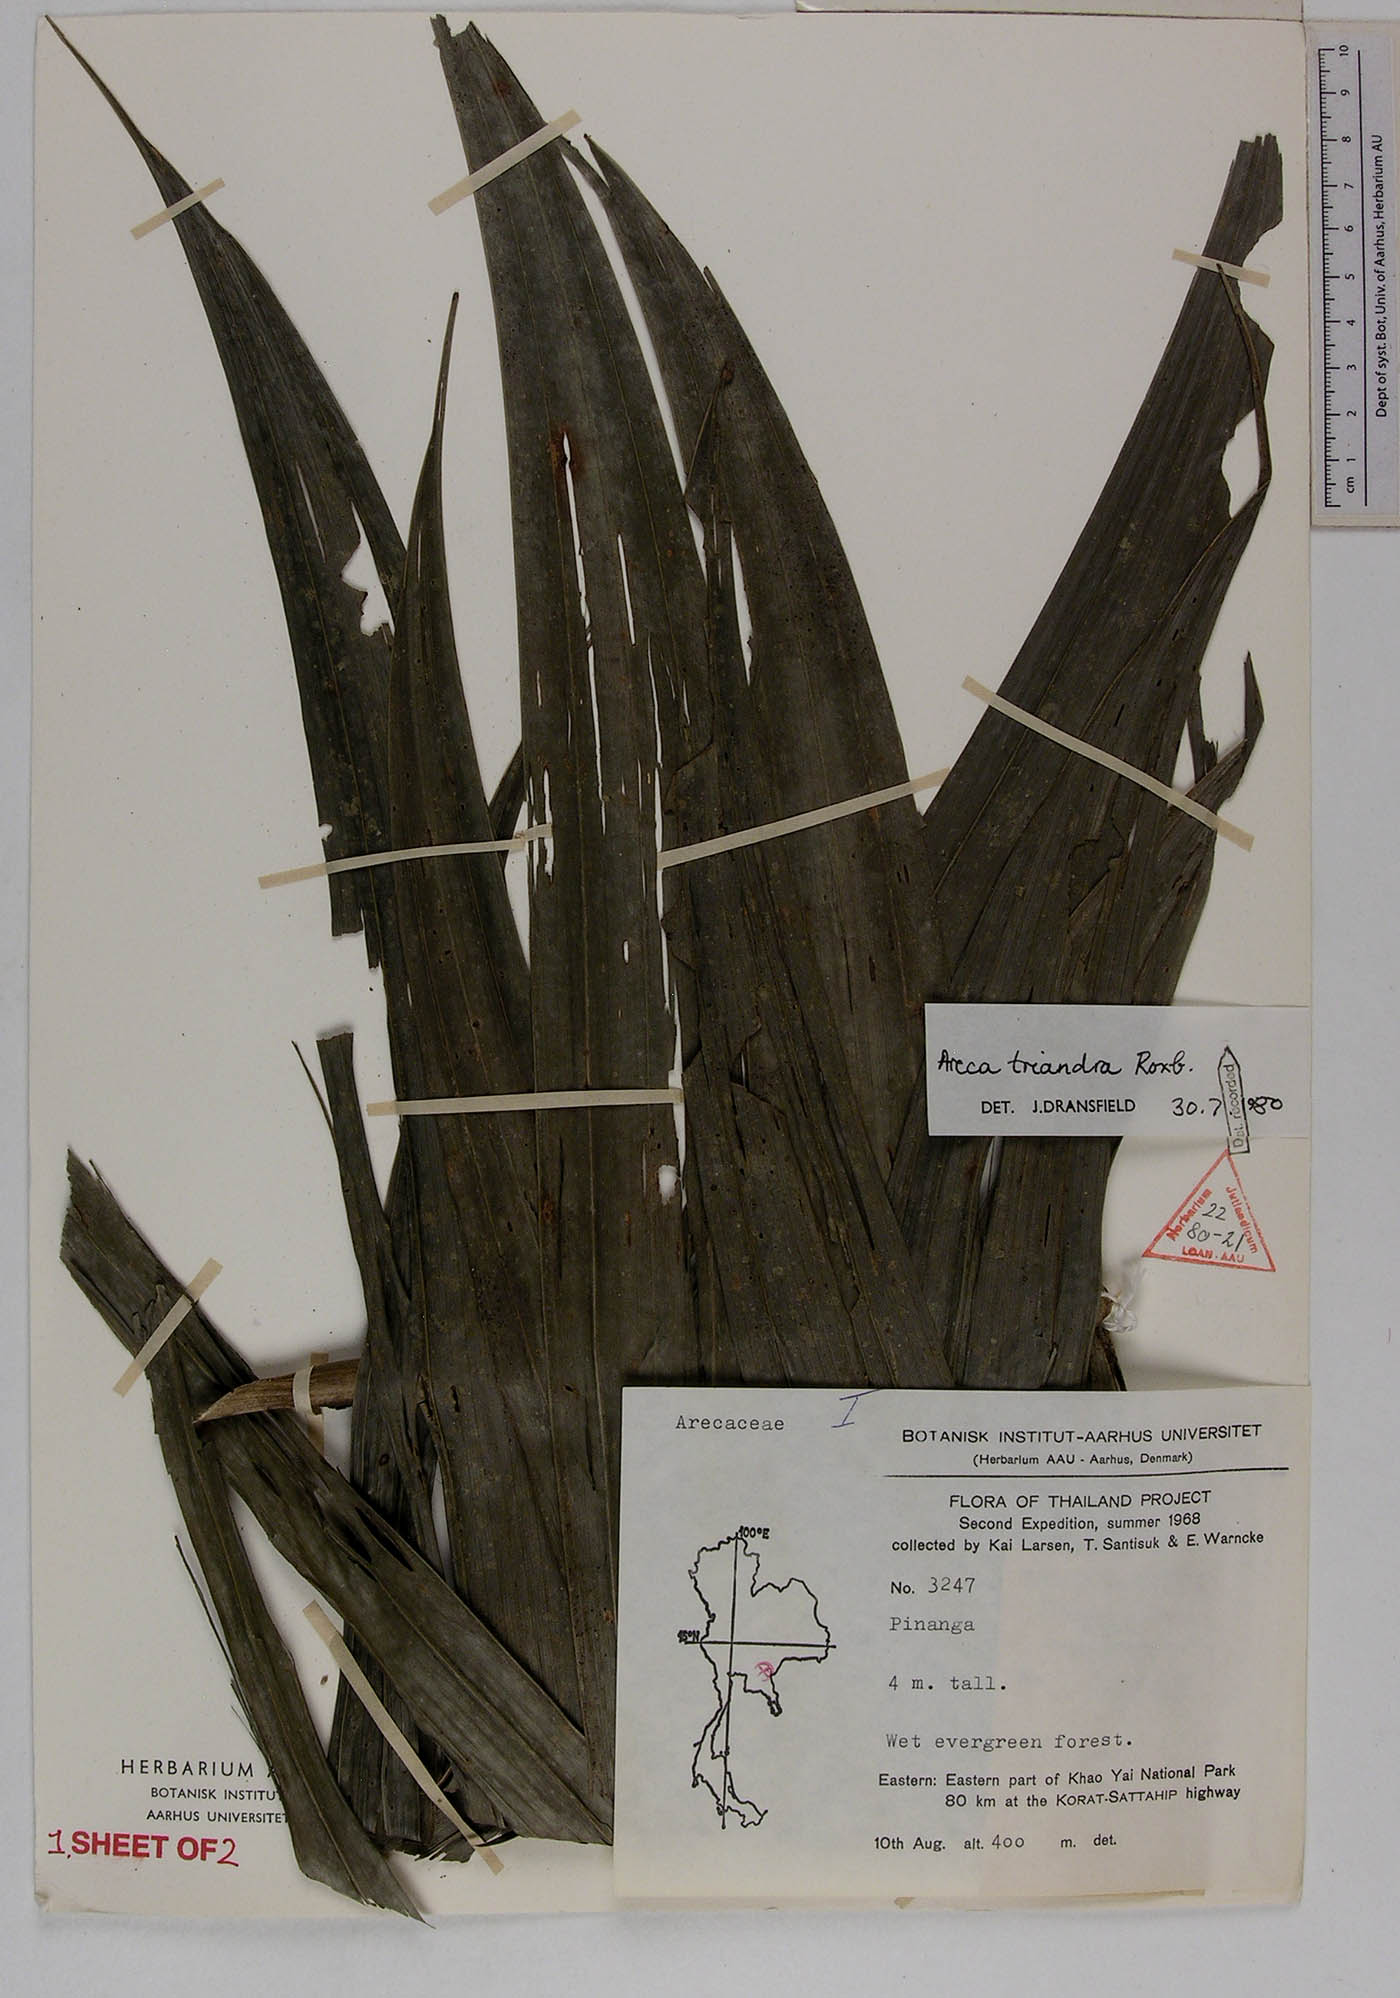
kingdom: Plantae
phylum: Tracheophyta
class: Liliopsida
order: Arecales
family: Arecaceae
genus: Areca
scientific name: Areca triandra
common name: Australian areca palm
